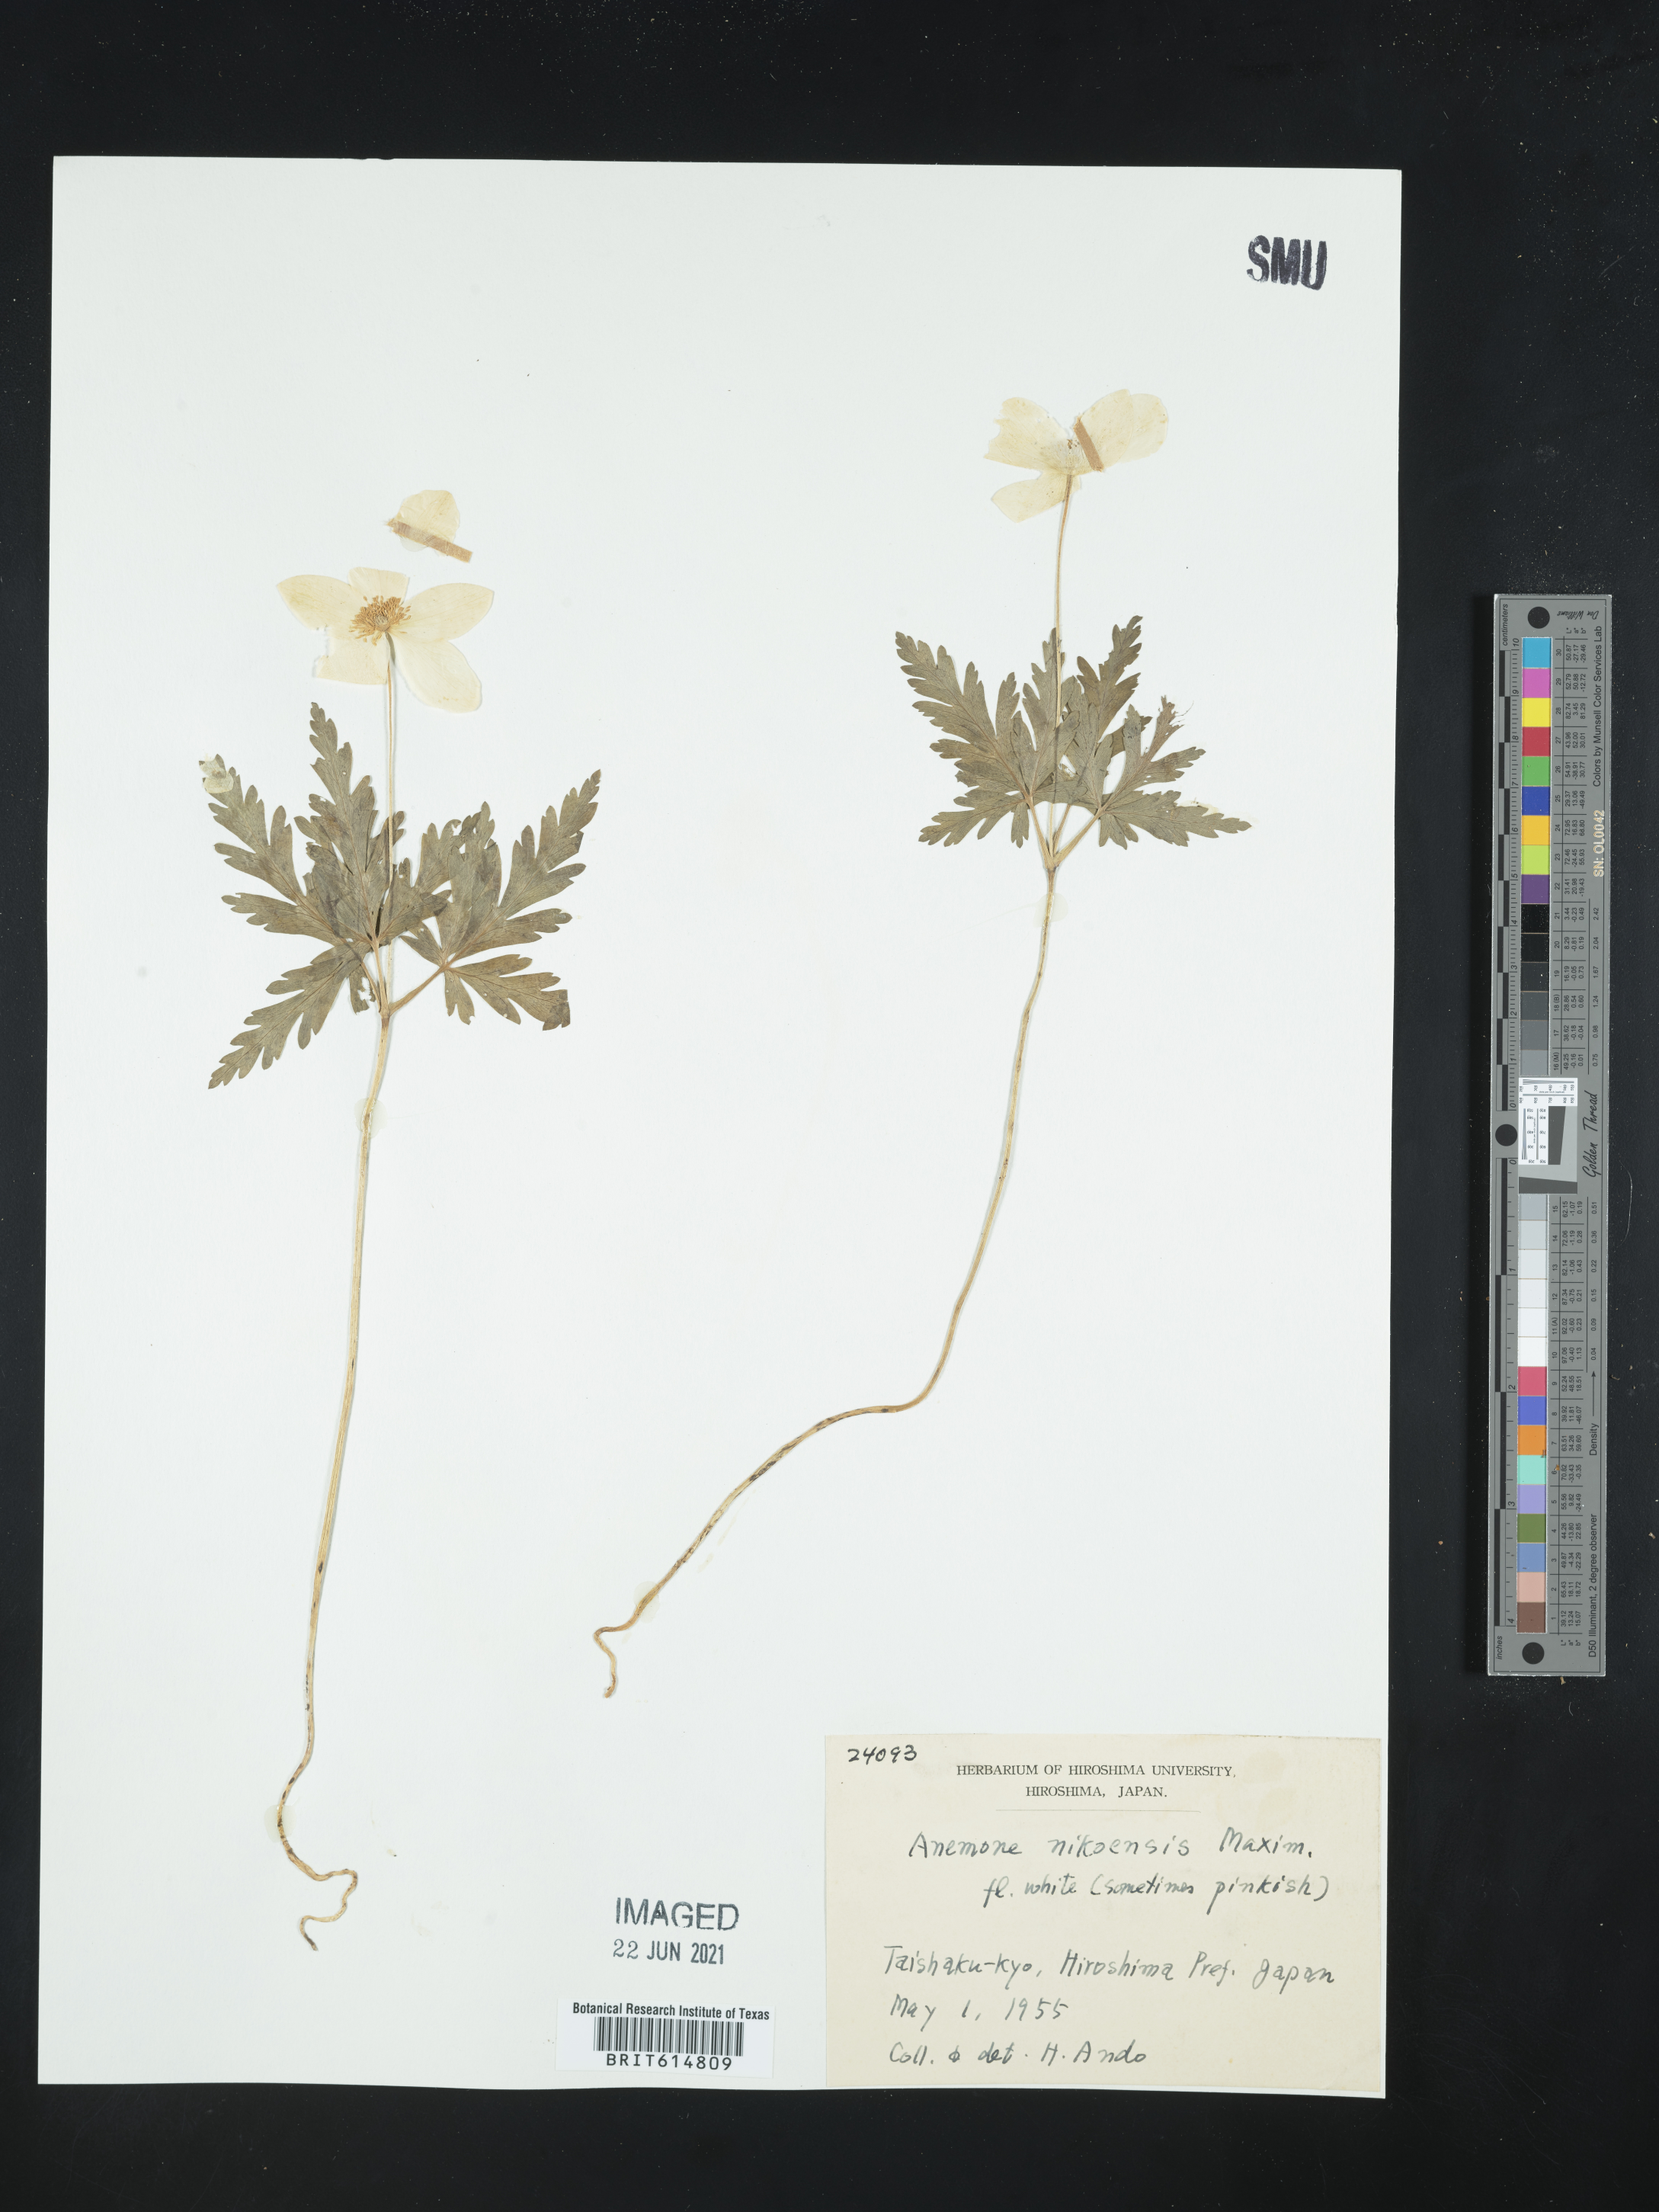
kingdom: Plantae
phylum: Tracheophyta
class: Magnoliopsida
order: Ranunculales
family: Ranunculaceae
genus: Anemone
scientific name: Anemone nikoensis
